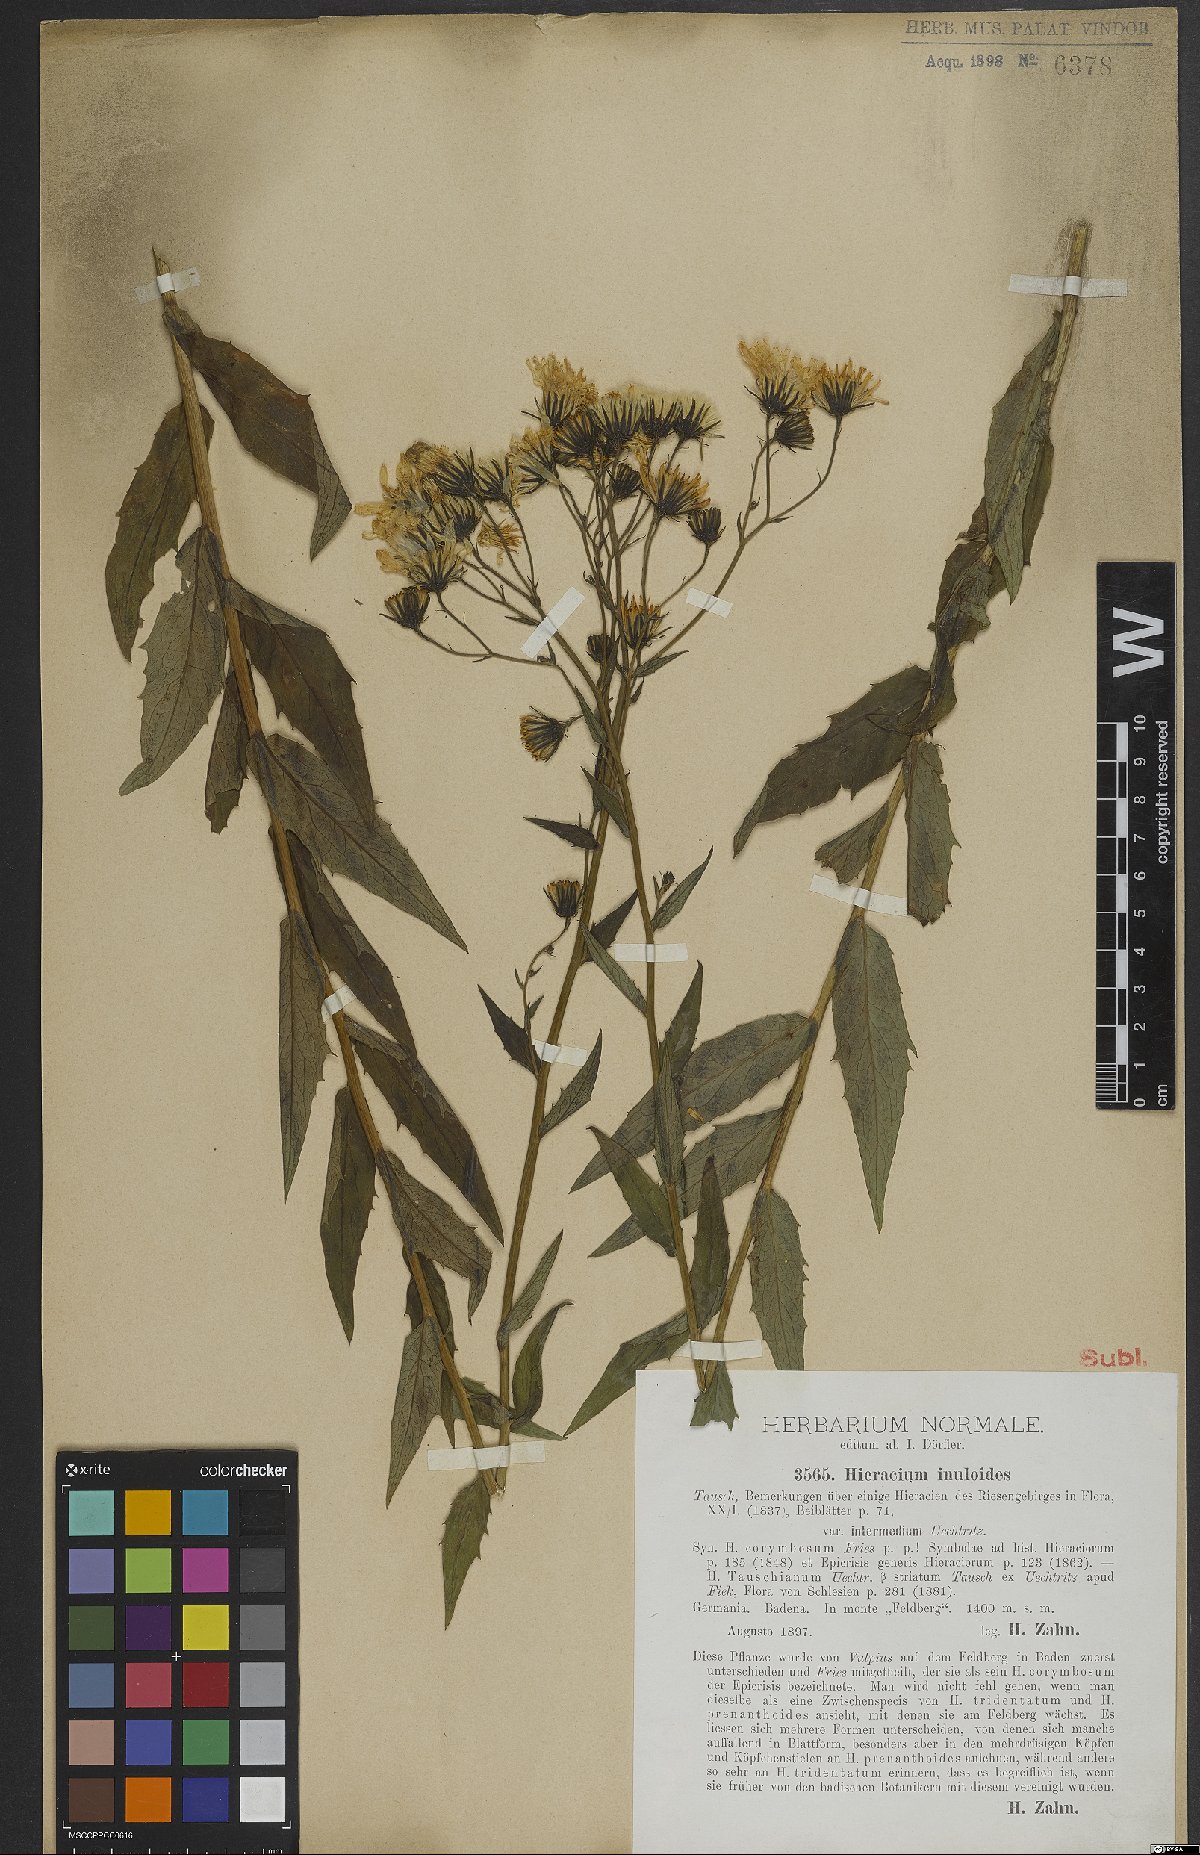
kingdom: Plantae
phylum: Tracheophyta
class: Magnoliopsida
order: Asterales
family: Asteraceae
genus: Hieracium
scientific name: Hieracium inuloides
